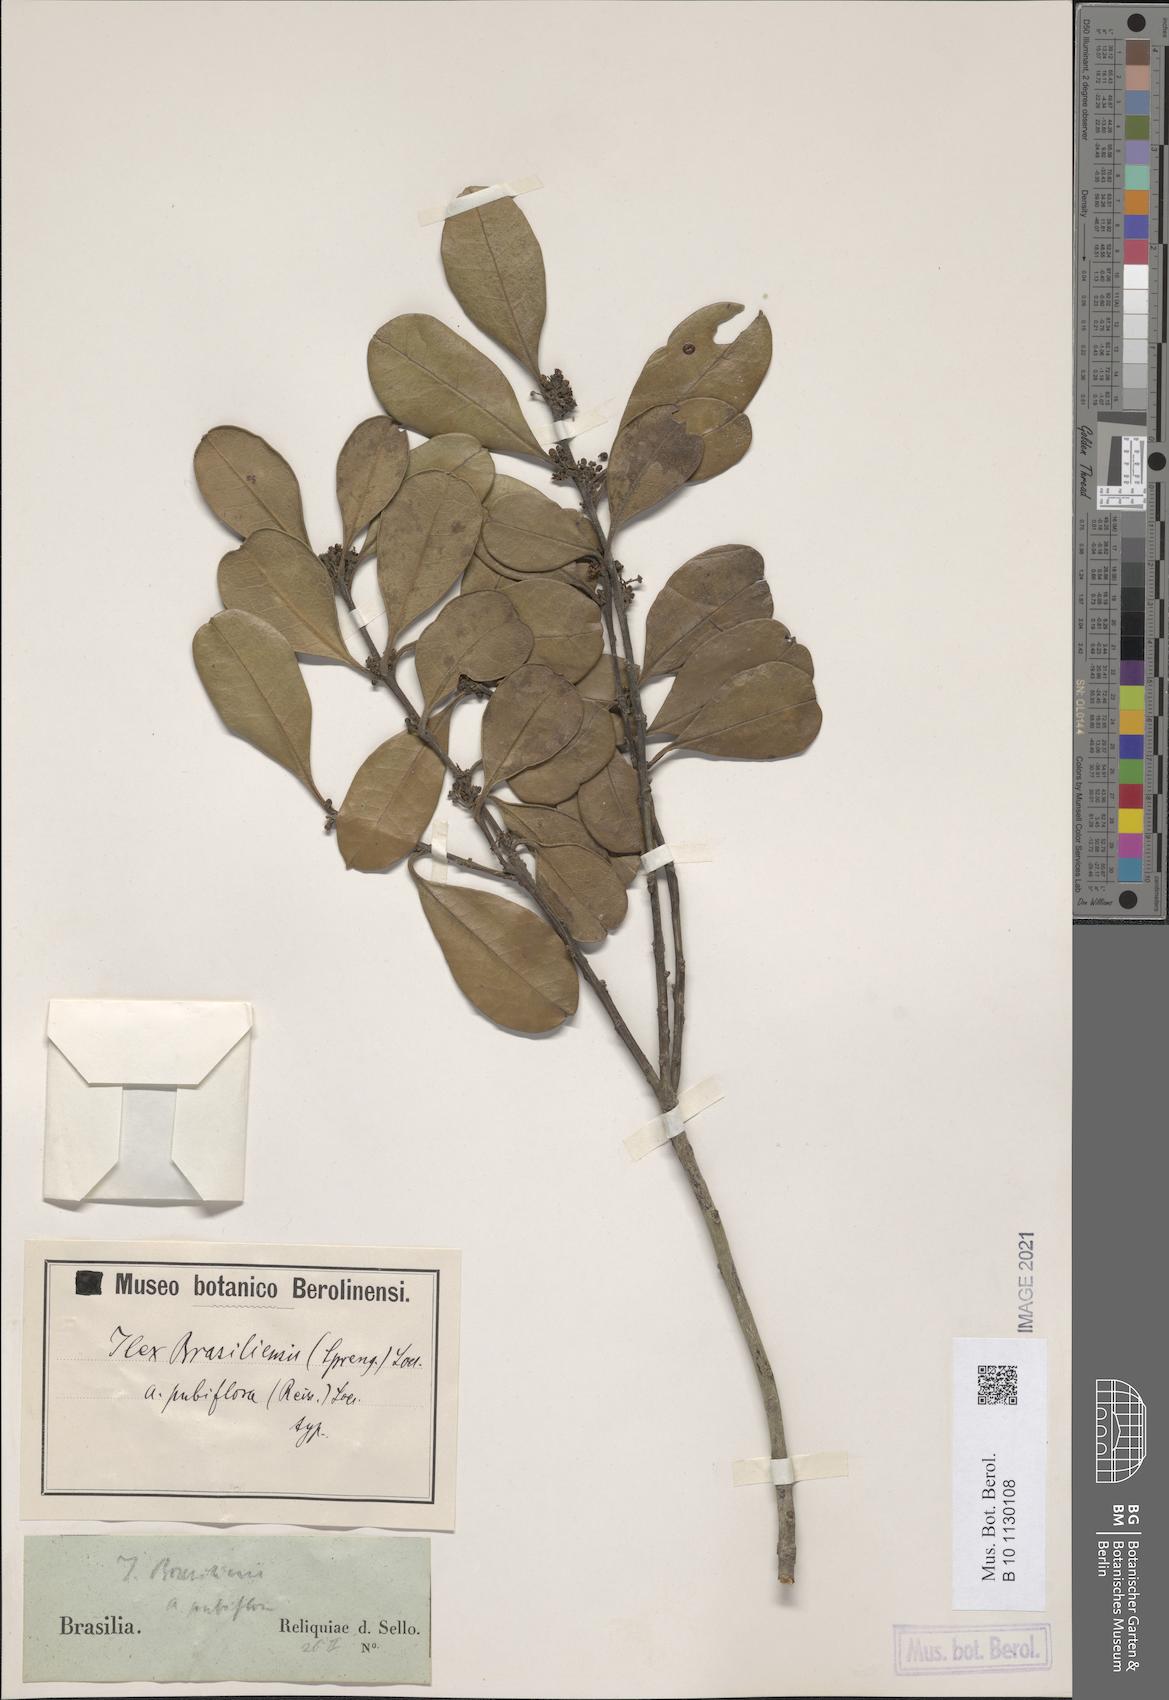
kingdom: Plantae
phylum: Tracheophyta
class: Magnoliopsida
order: Aquifoliales
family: Aquifoliaceae
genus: Ilex
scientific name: Ilex brasiliensis
